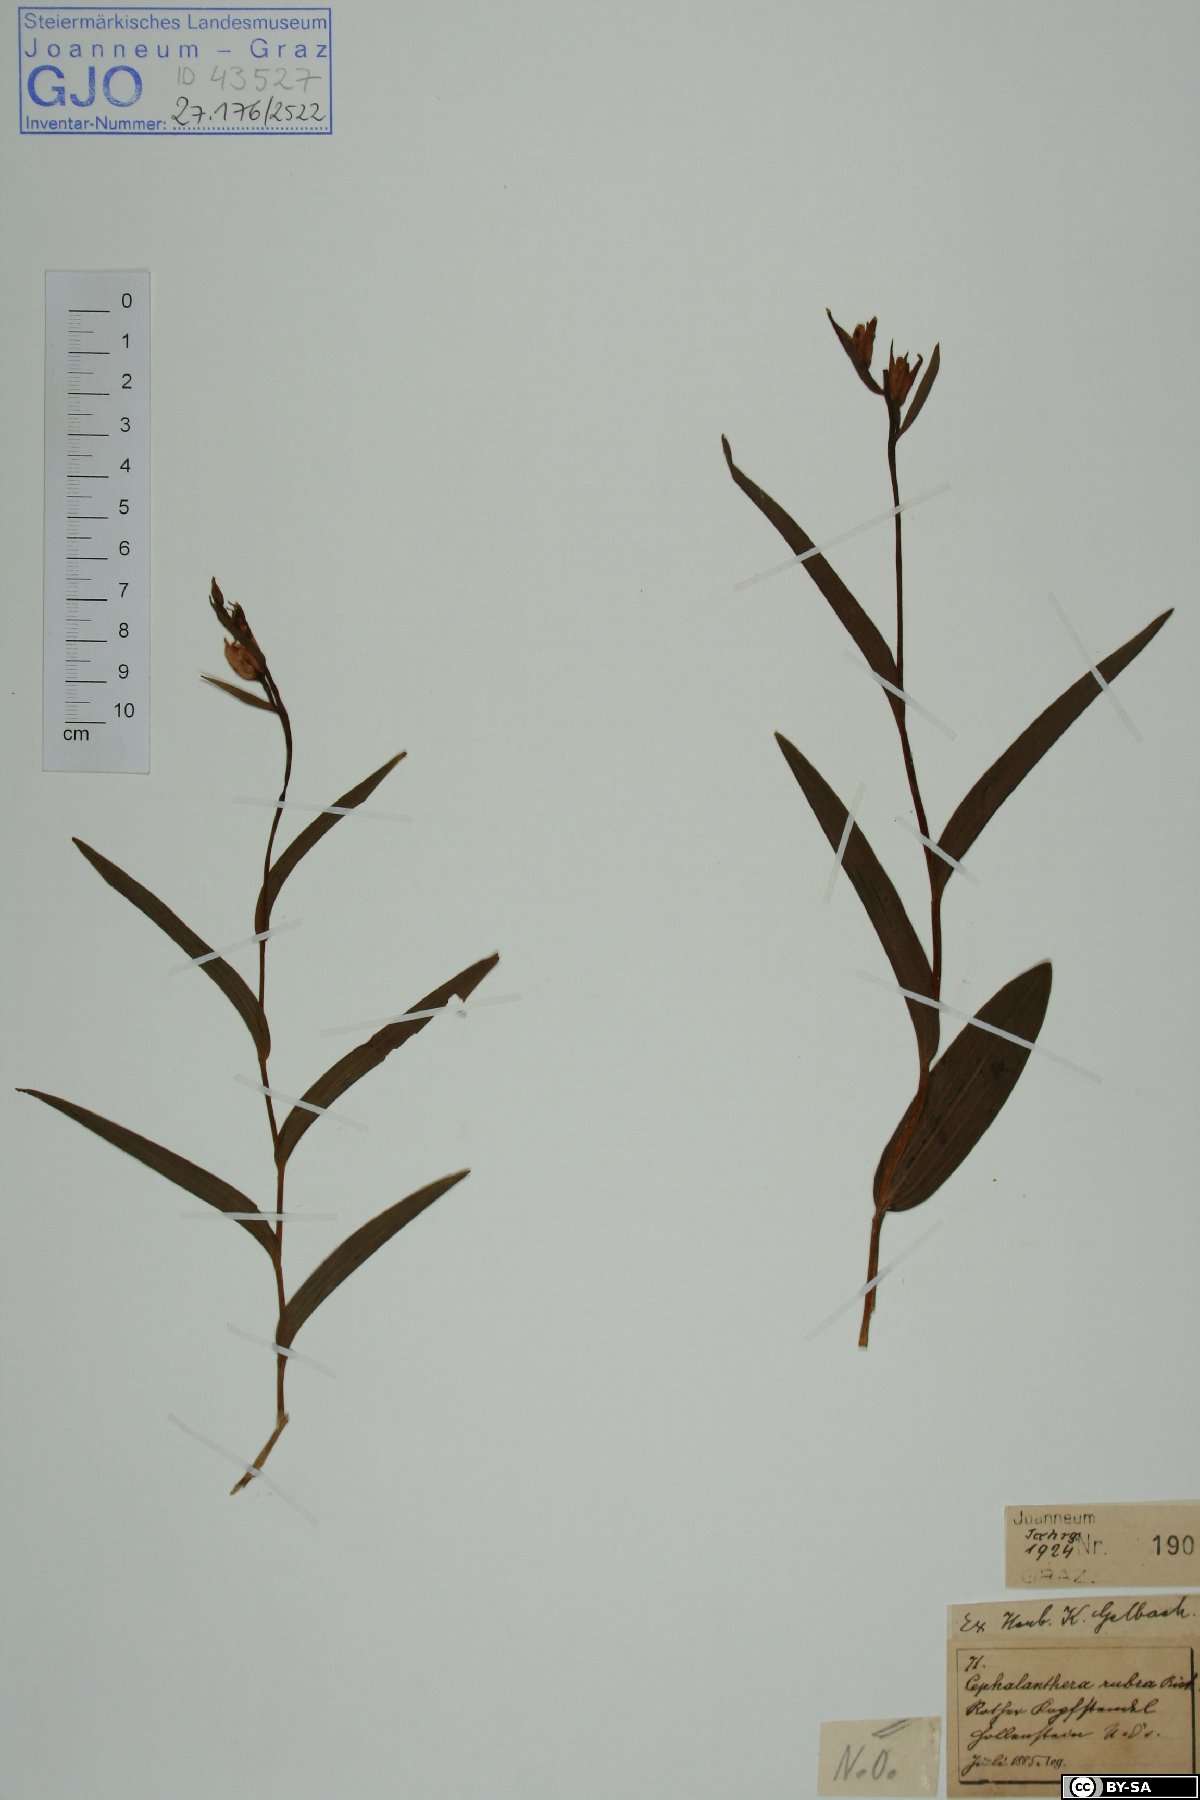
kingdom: Plantae
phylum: Tracheophyta
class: Liliopsida
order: Asparagales
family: Orchidaceae
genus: Cephalanthera
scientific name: Cephalanthera rubra
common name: Red helleborine
